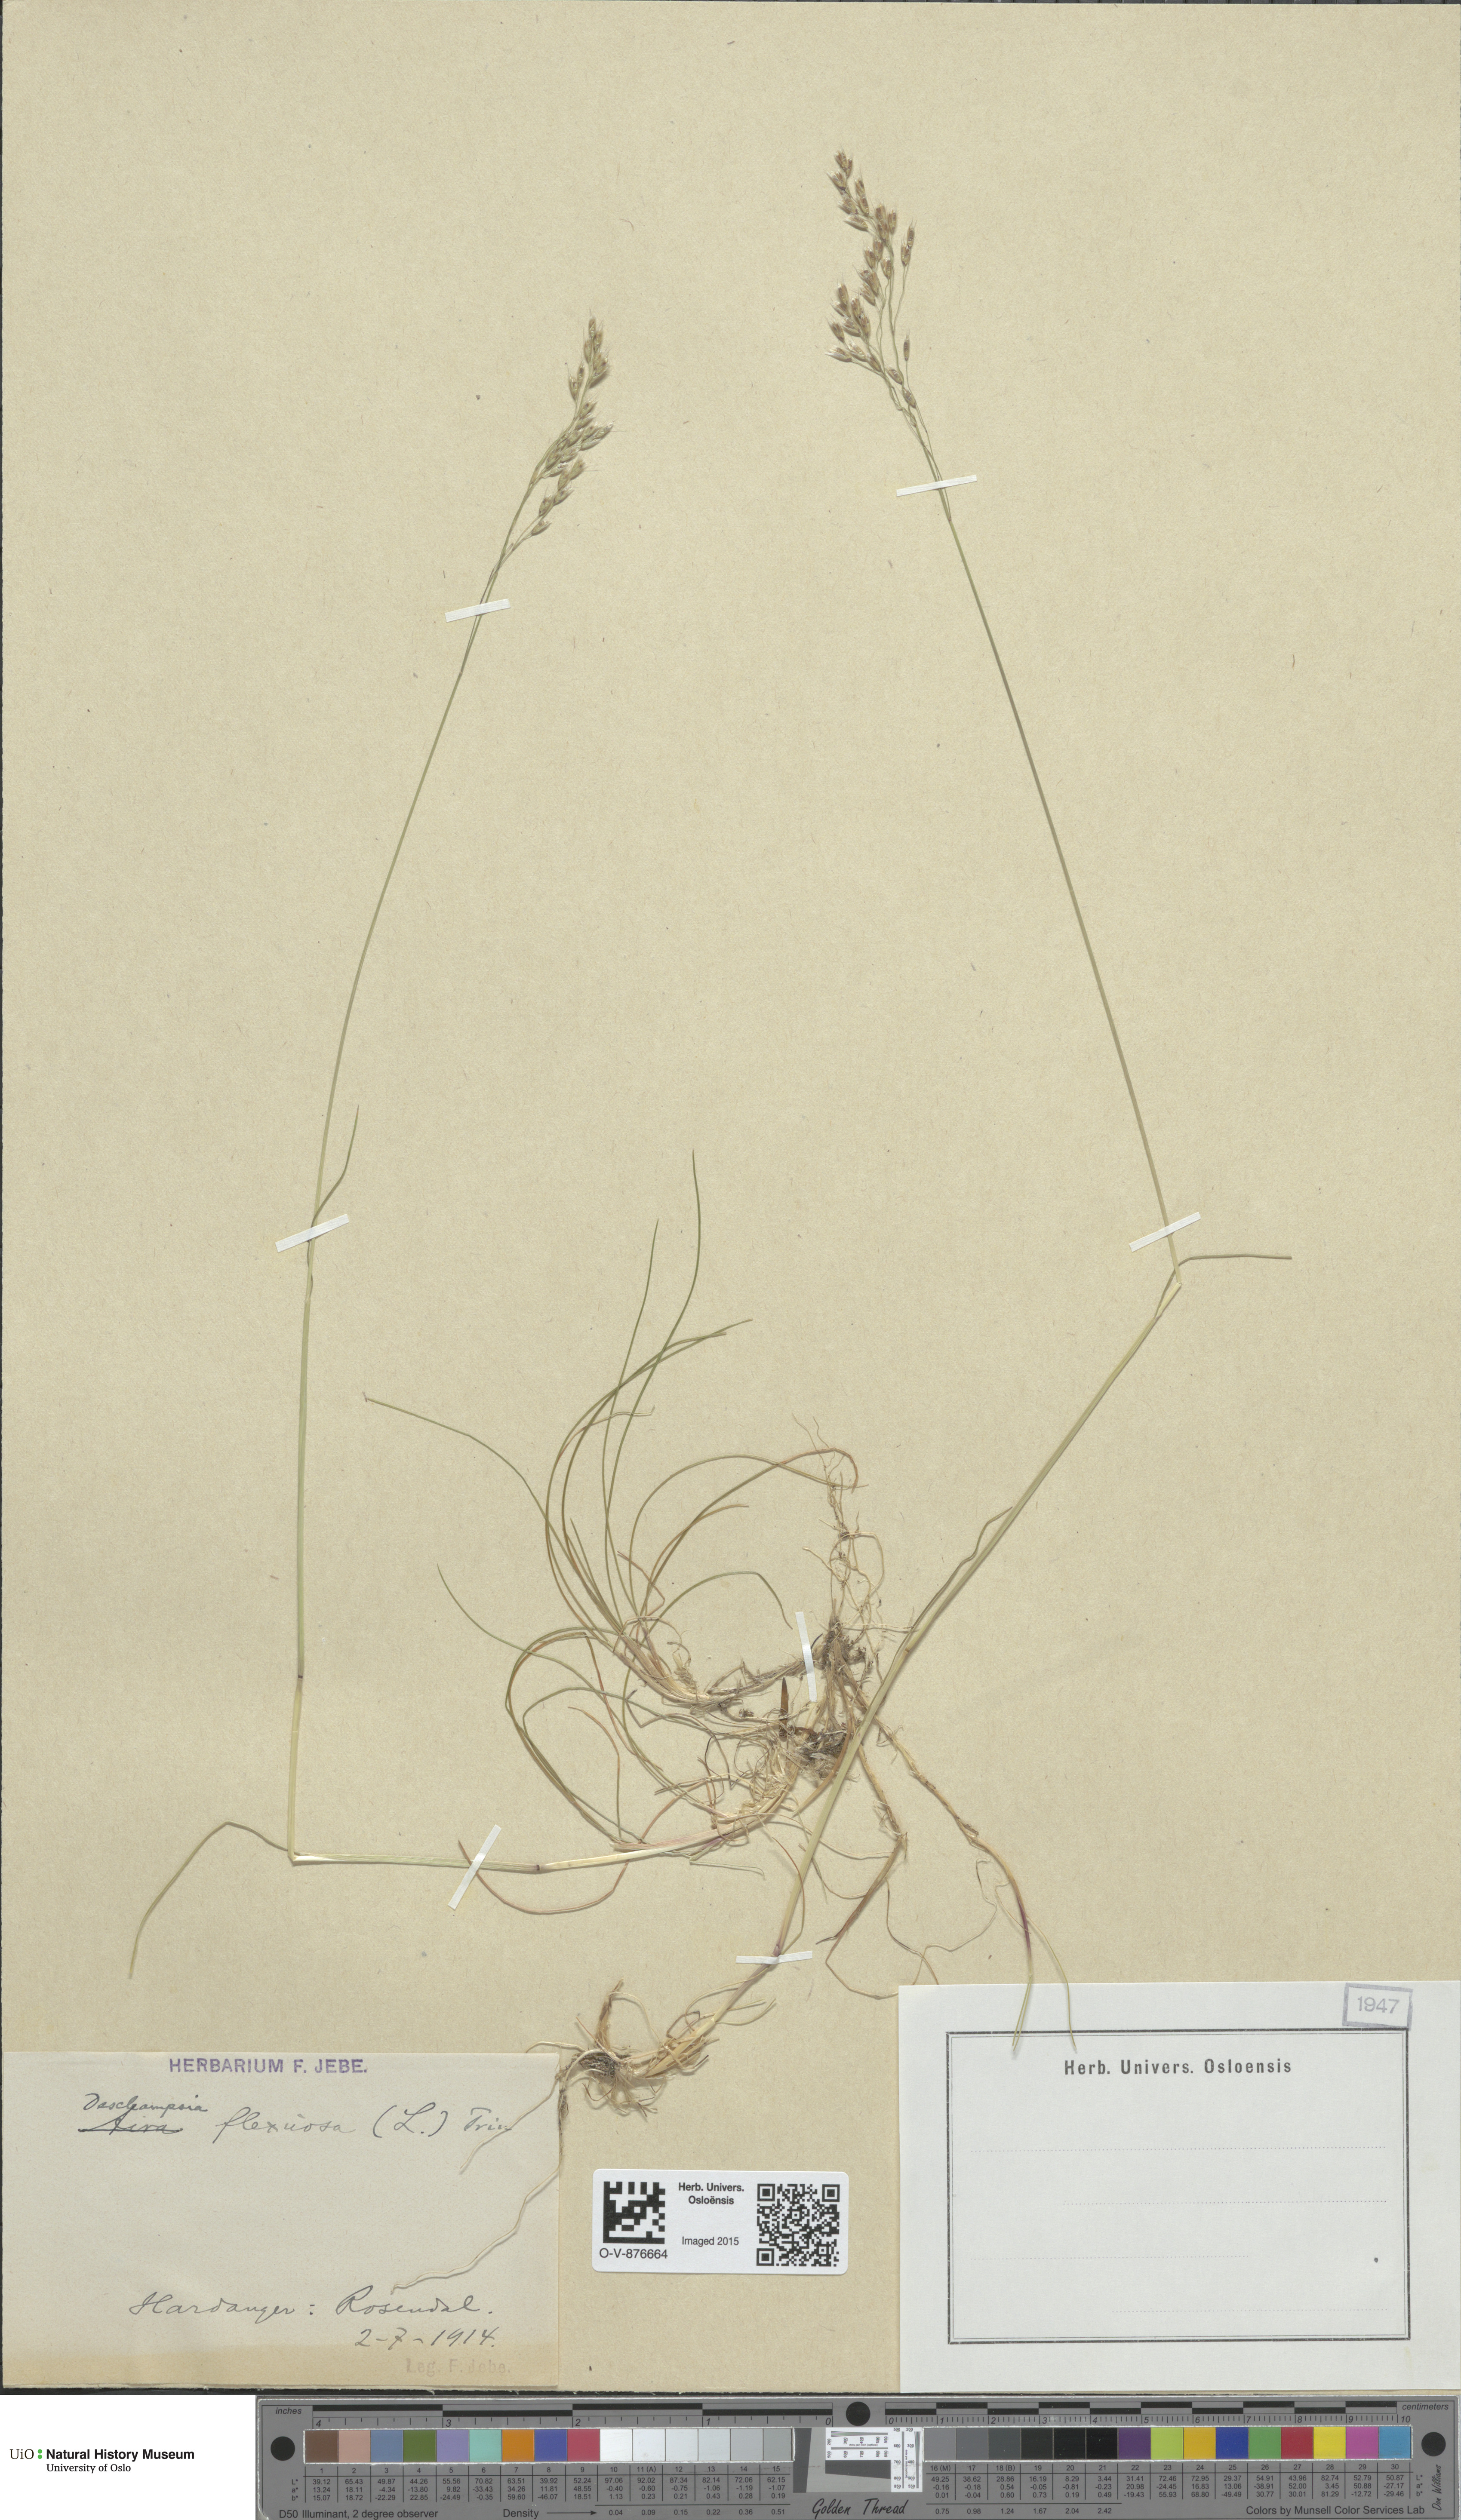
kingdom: Plantae
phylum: Tracheophyta
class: Liliopsida
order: Poales
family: Poaceae
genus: Avenella
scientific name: Avenella flexuosa
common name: Wavy hairgrass
